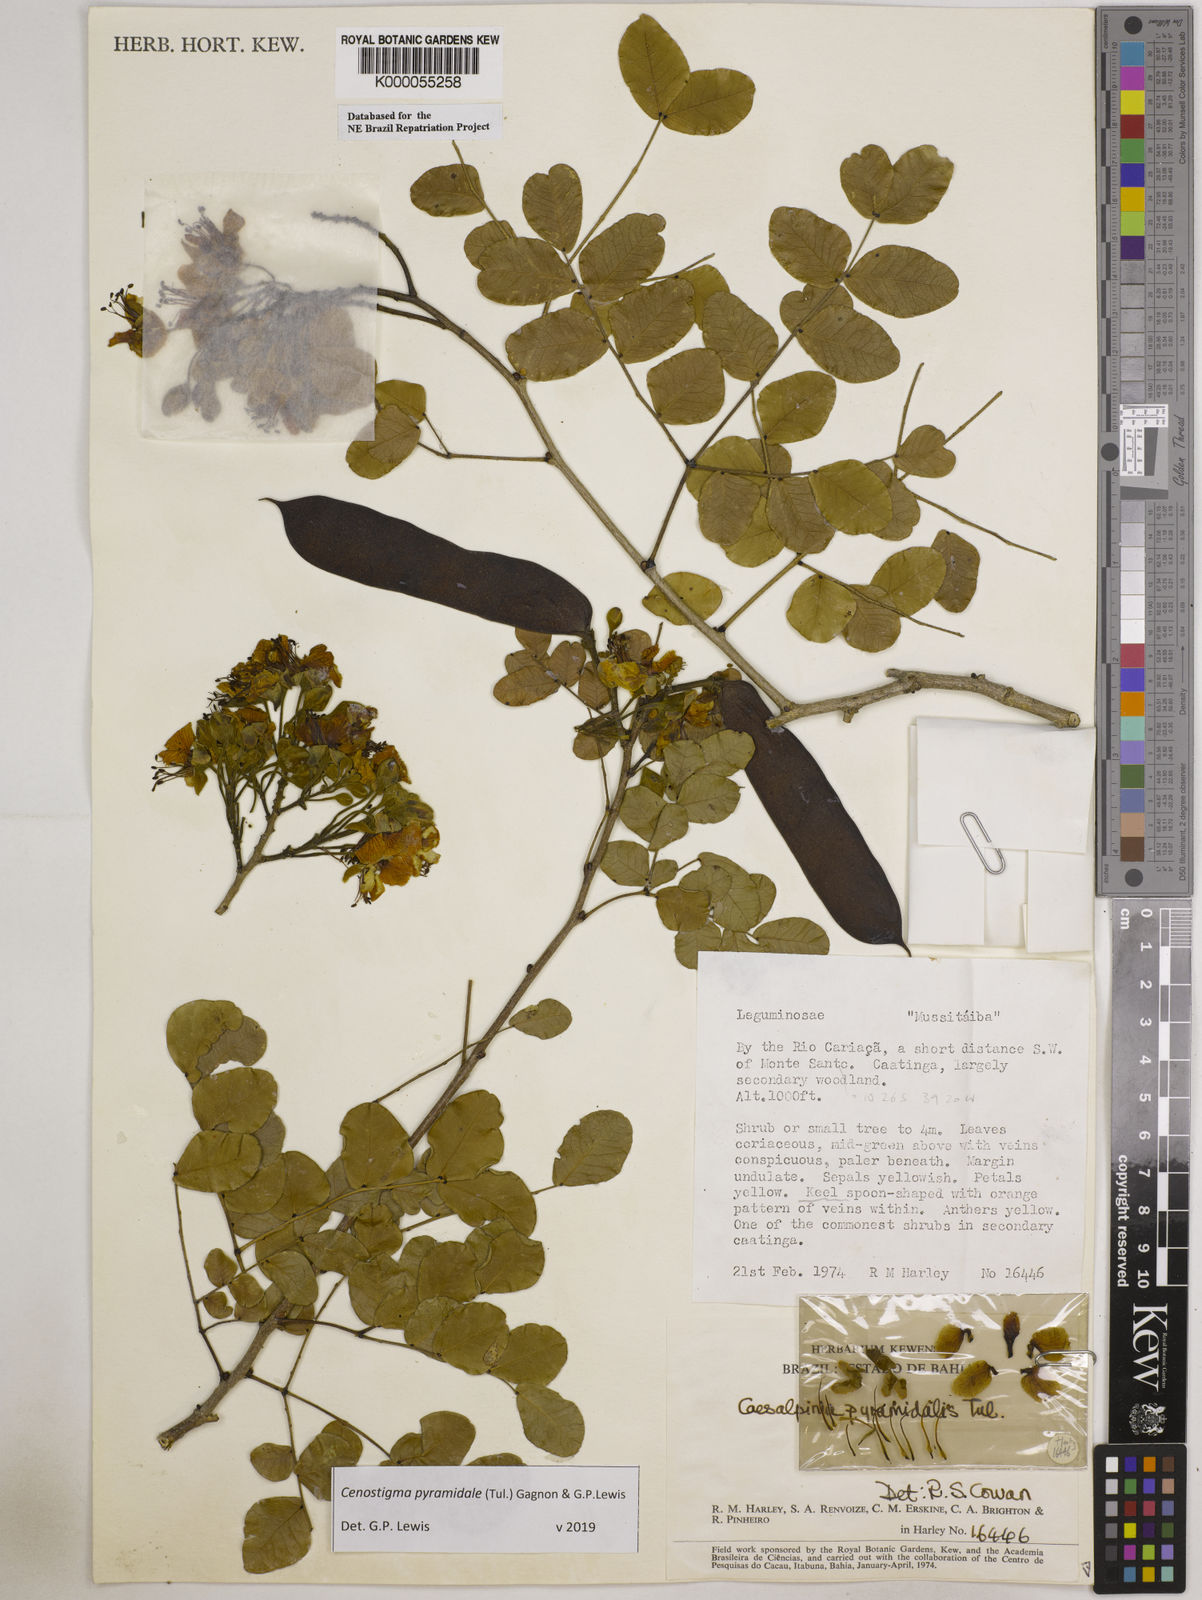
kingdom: Plantae
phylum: Tracheophyta
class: Magnoliopsida
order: Fabales
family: Fabaceae
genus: Cenostigma
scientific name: Cenostigma pyramidale
